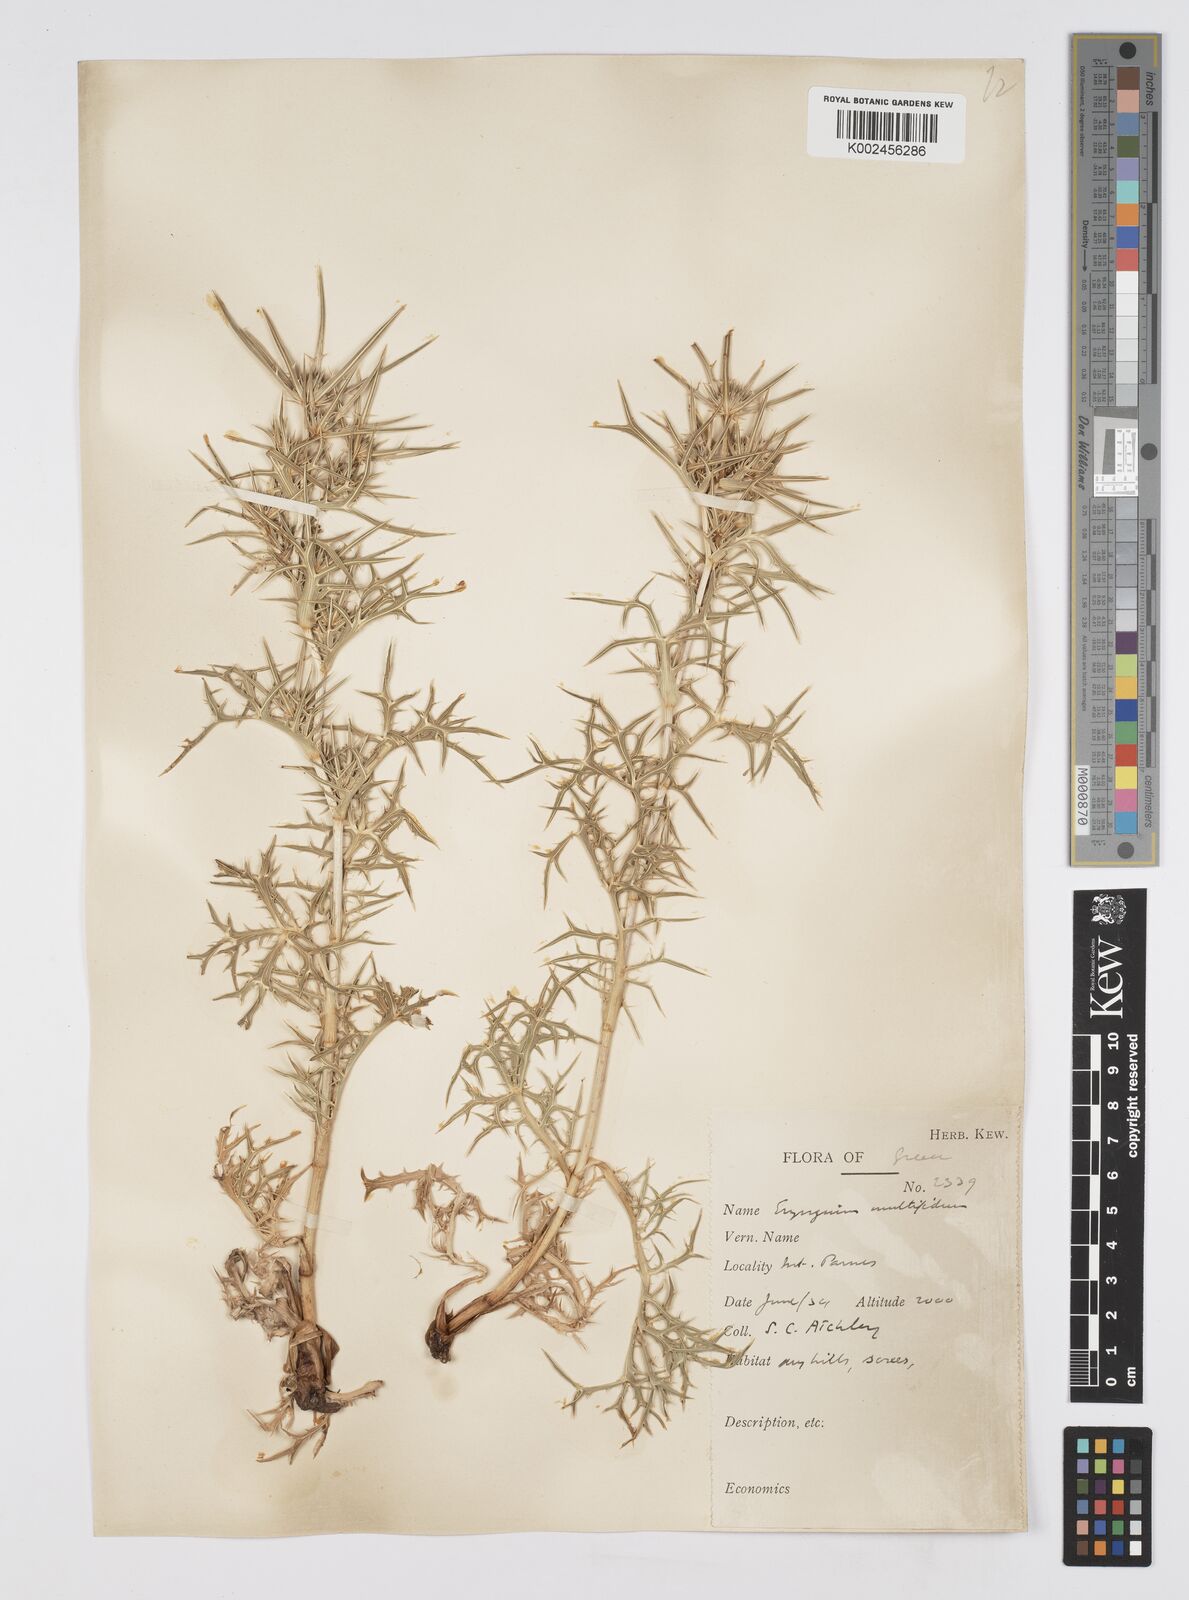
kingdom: Plantae
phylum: Tracheophyta
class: Magnoliopsida
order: Apiales
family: Apiaceae
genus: Eryngium
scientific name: Eryngium amethystinum
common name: Amethyst eryngo
